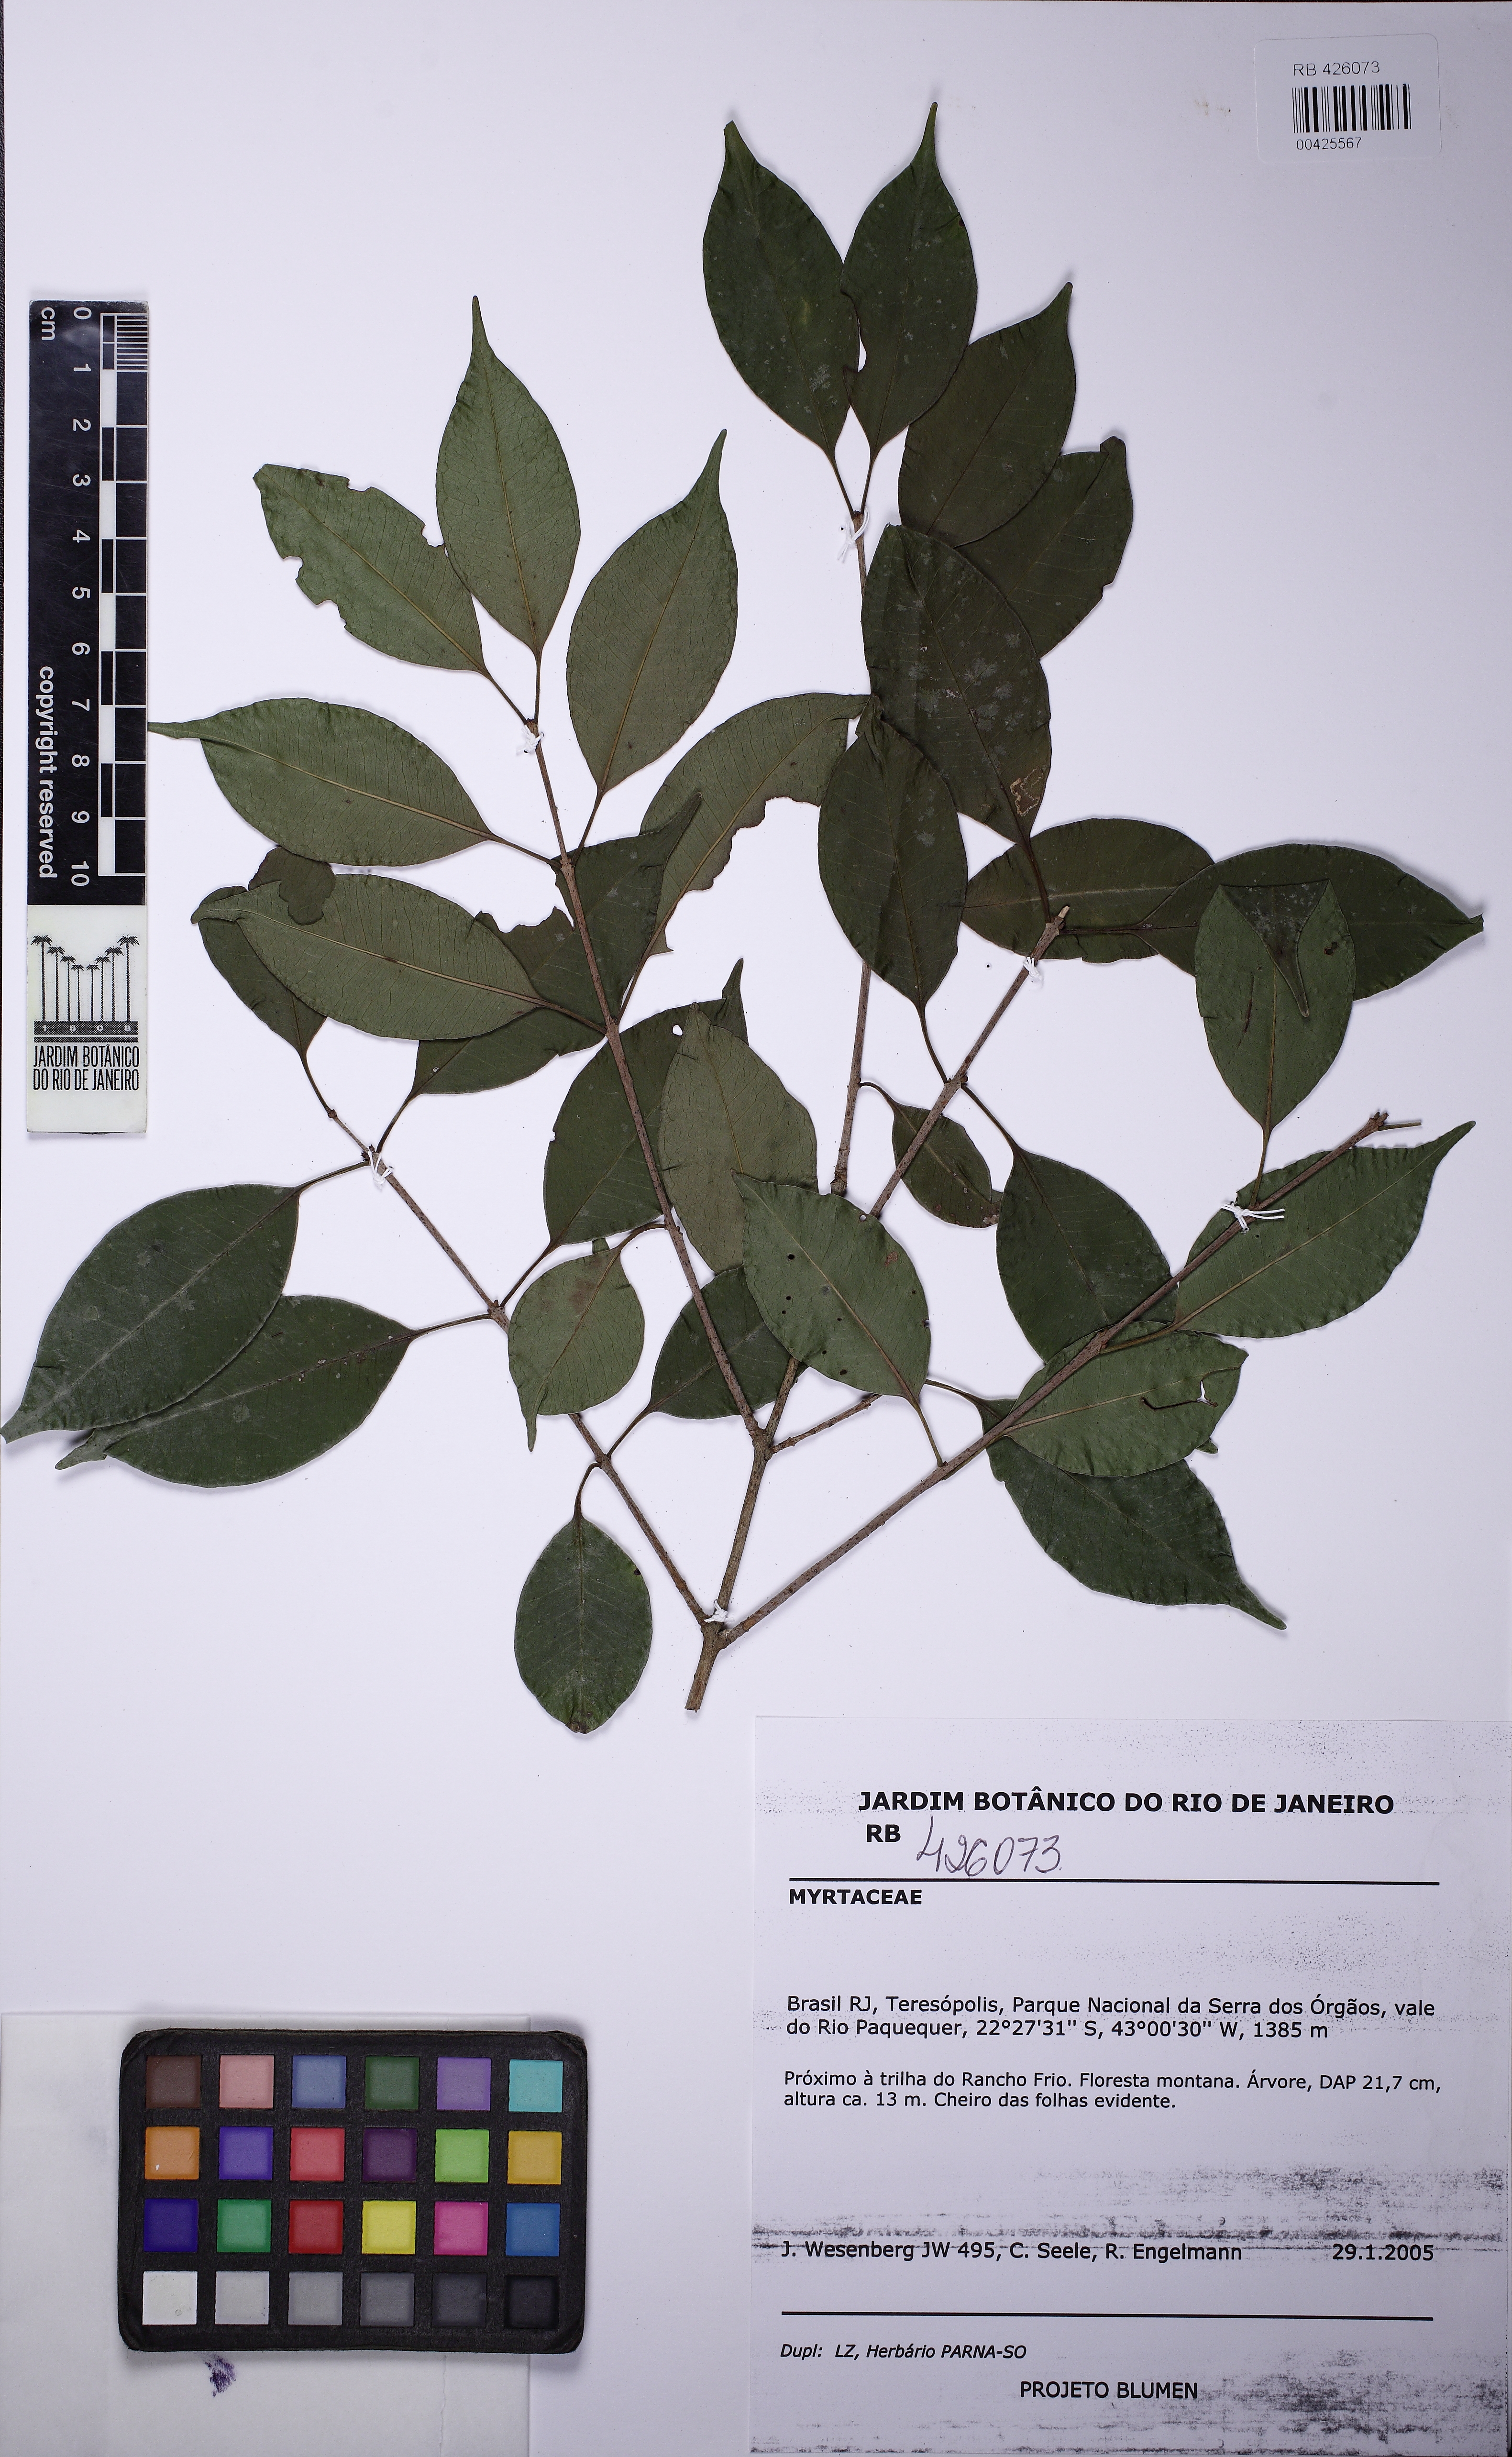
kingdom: Plantae
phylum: Tracheophyta
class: Magnoliopsida
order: Myrtales
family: Myrtaceae
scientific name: Myrtaceae
